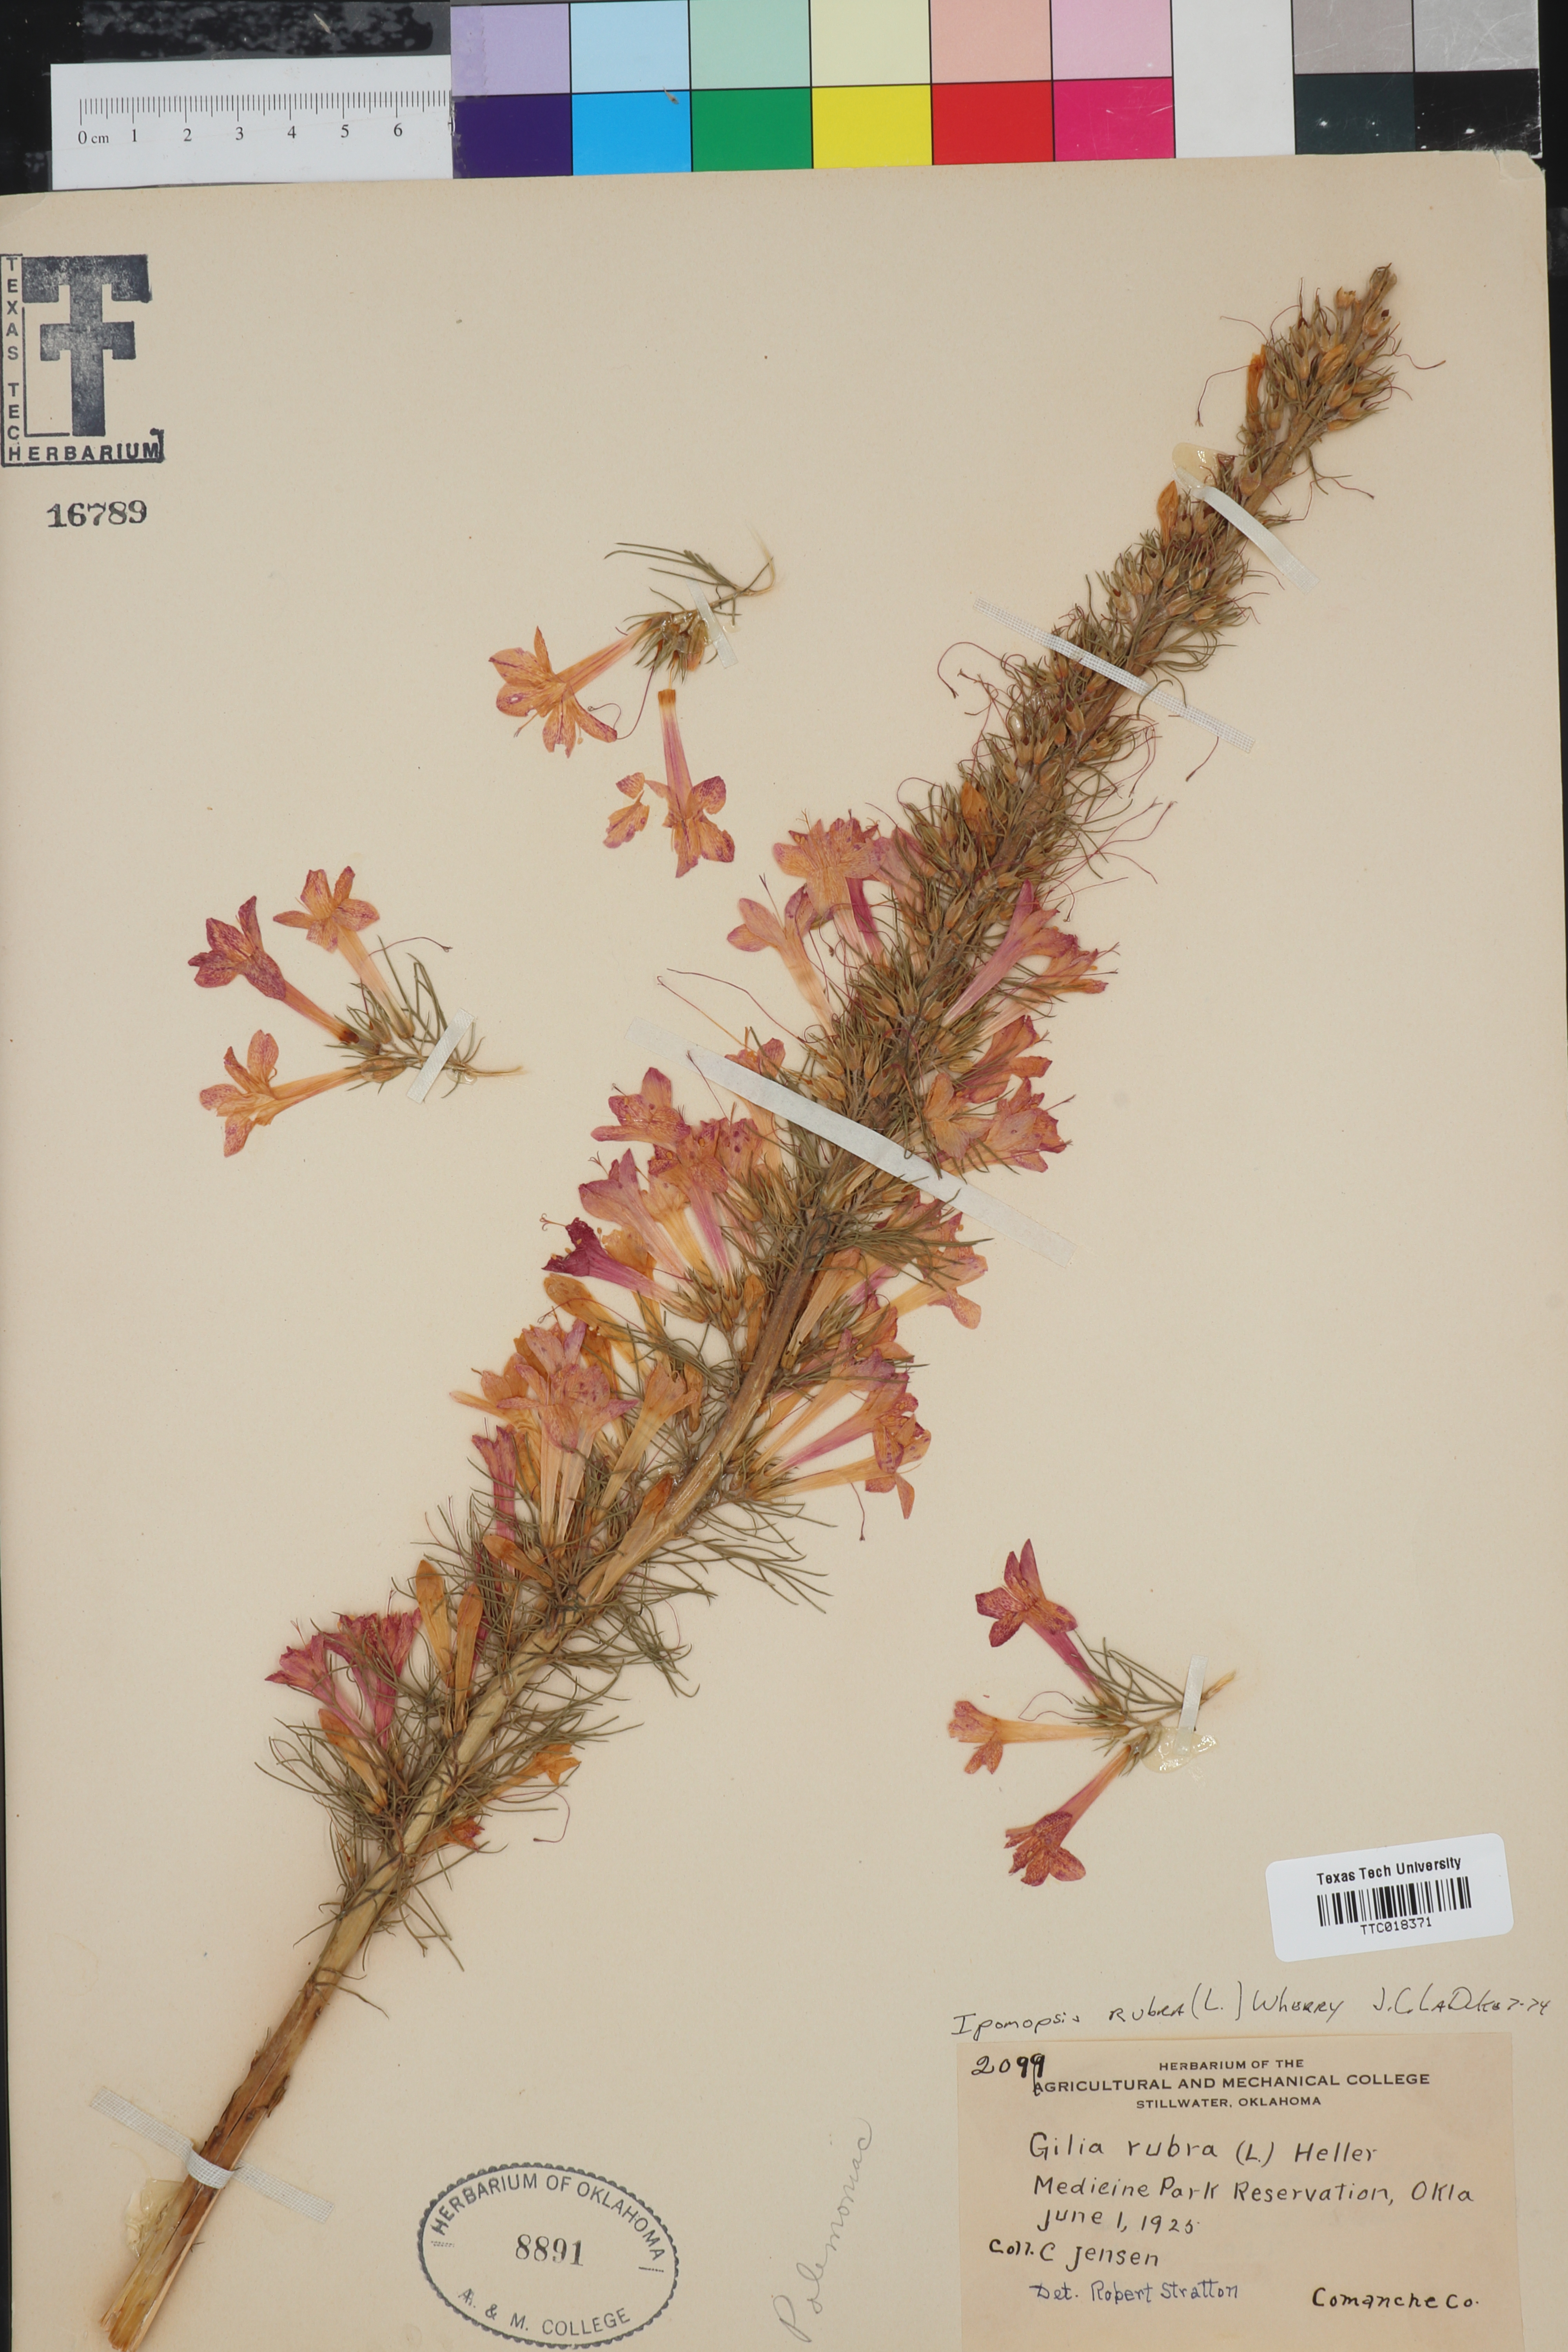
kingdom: Plantae
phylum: Tracheophyta
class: Magnoliopsida
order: Ericales
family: Polemoniaceae
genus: Ipomopsis
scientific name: Ipomopsis rubra
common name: Skyrocket
